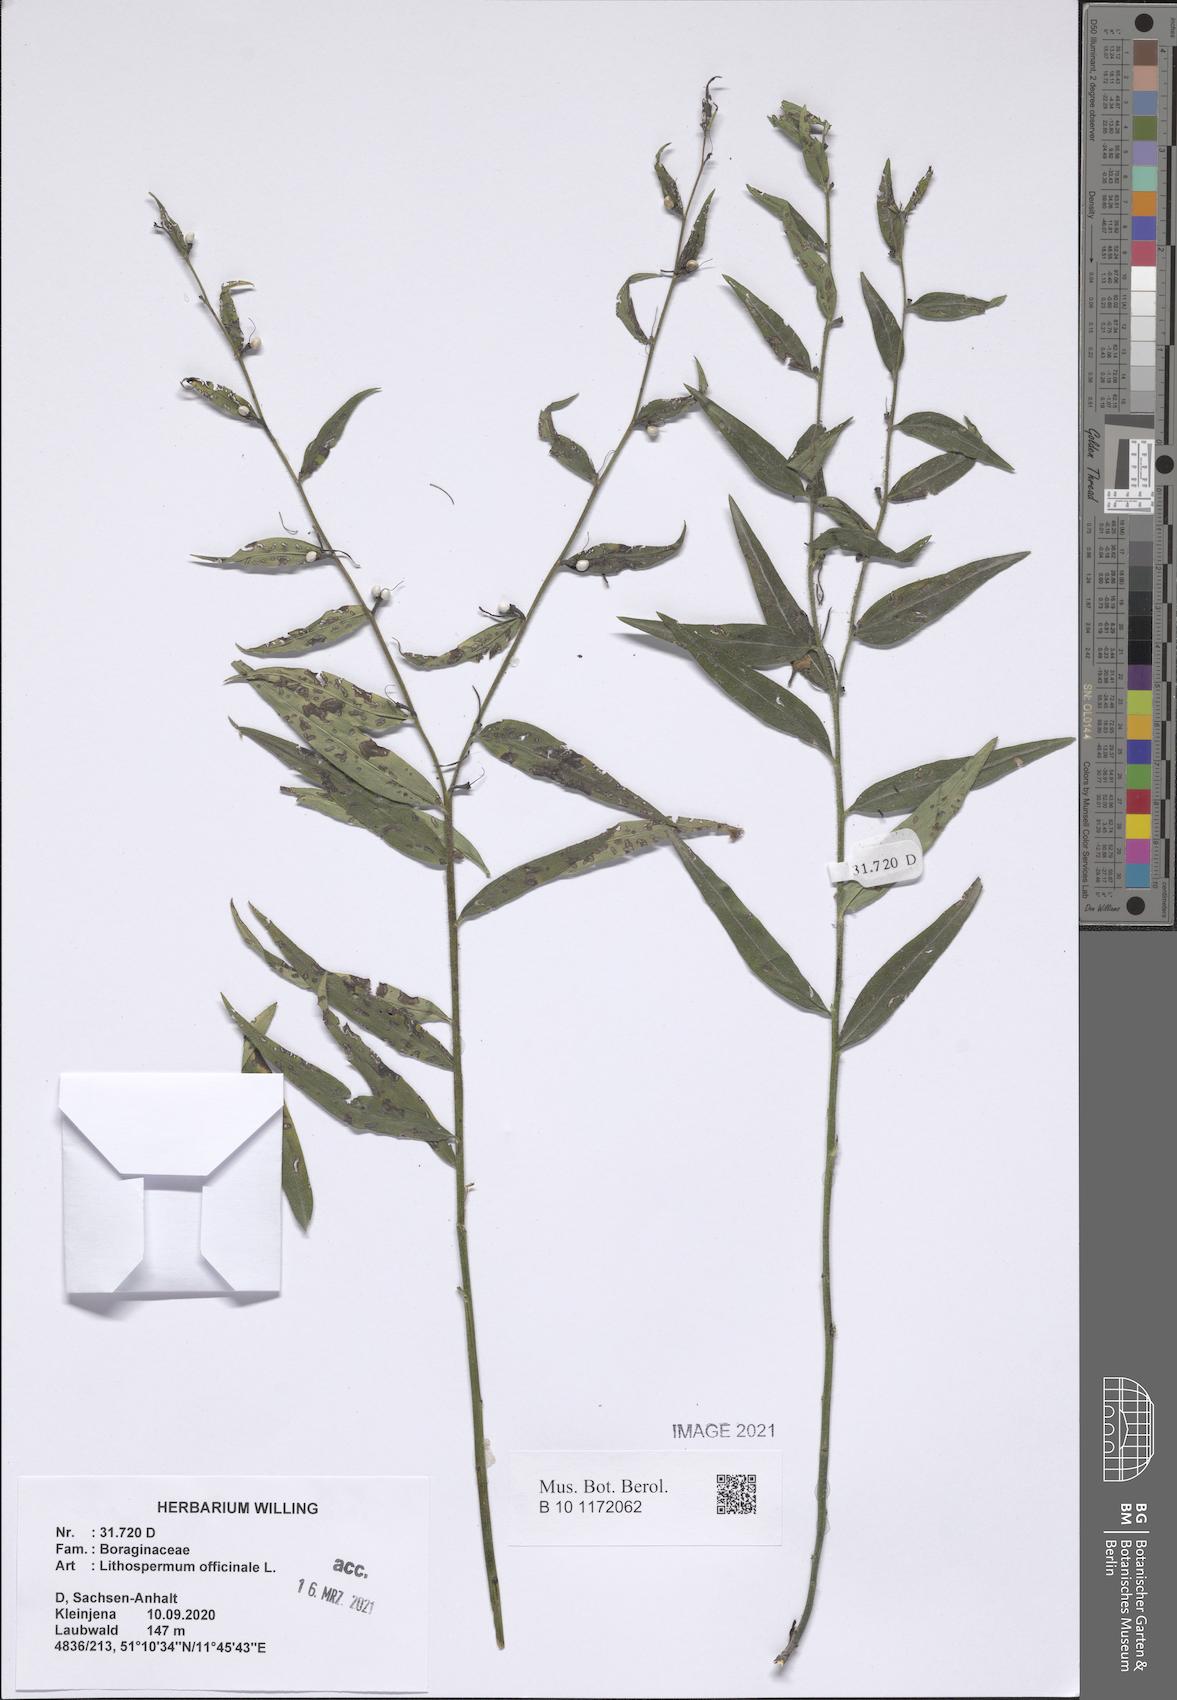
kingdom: Plantae
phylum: Tracheophyta
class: Magnoliopsida
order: Boraginales
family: Boraginaceae
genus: Lithospermum
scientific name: Lithospermum officinale
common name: Common gromwell
